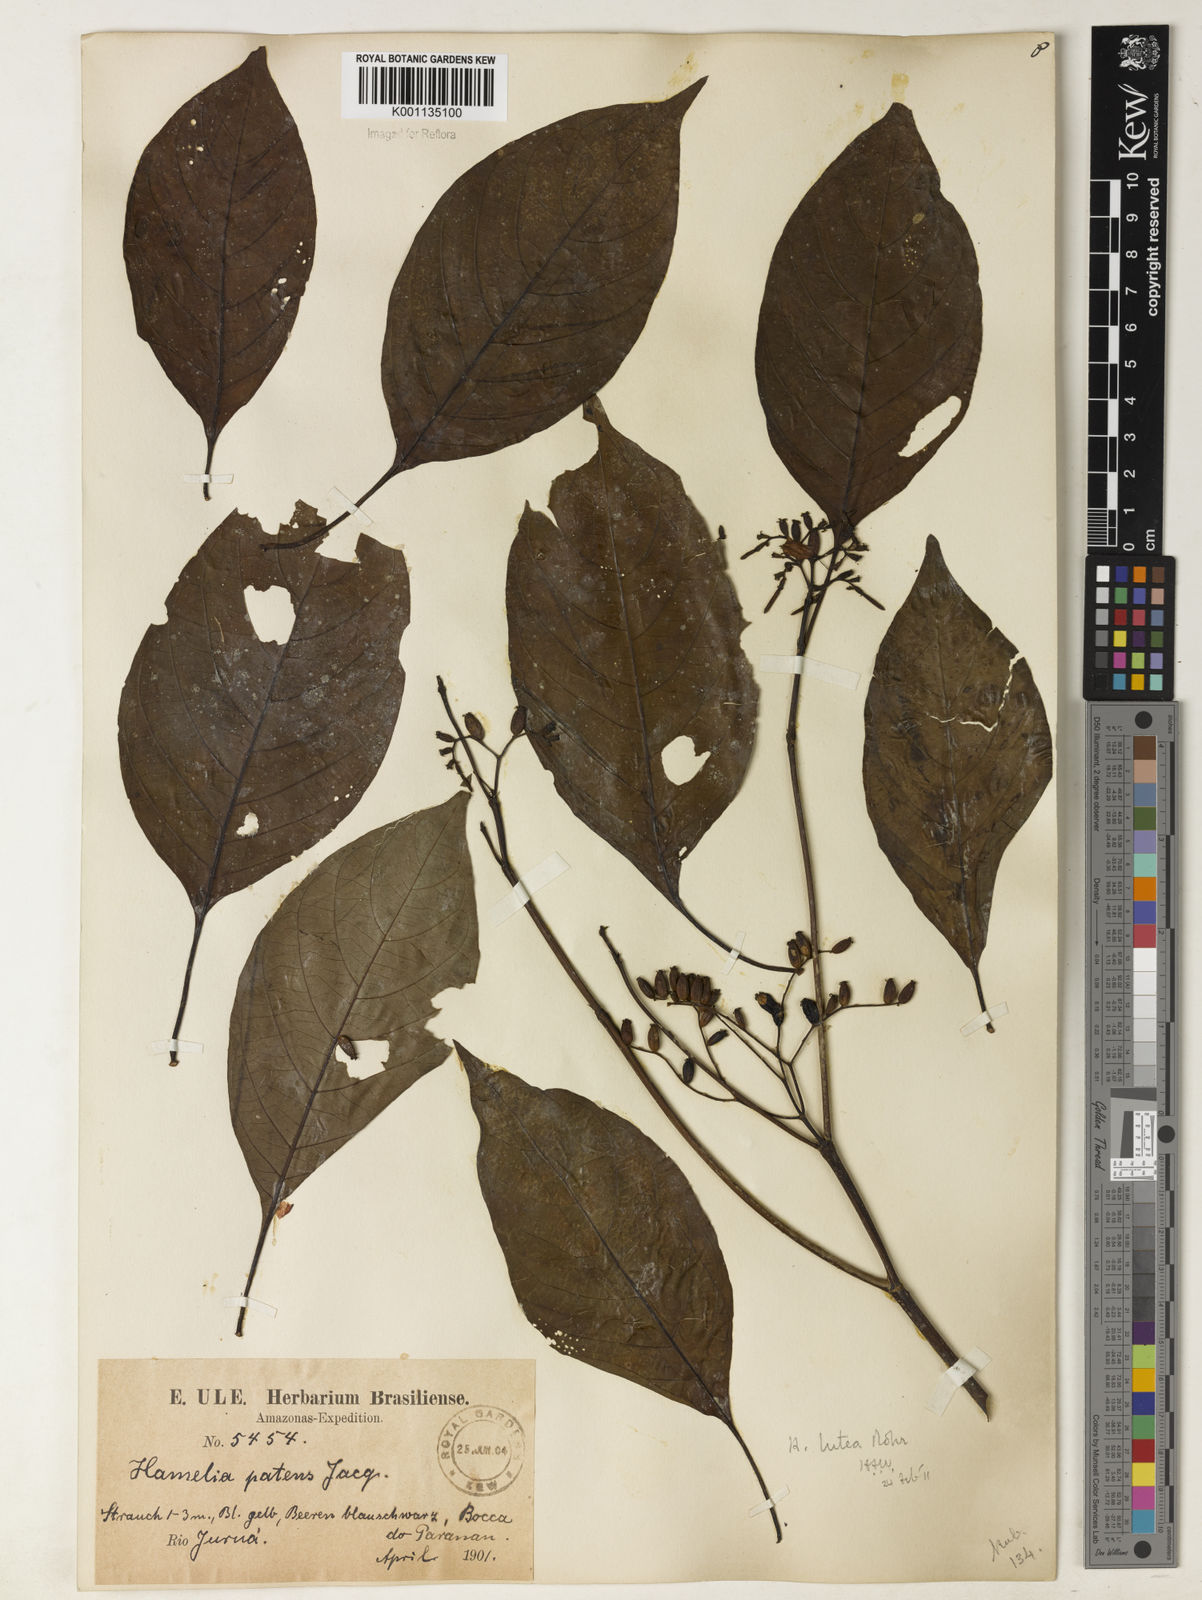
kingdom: Plantae
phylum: Tracheophyta
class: Magnoliopsida
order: Gentianales
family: Rubiaceae
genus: Hamelia
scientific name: Hamelia axillaris
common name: Balsamillo
